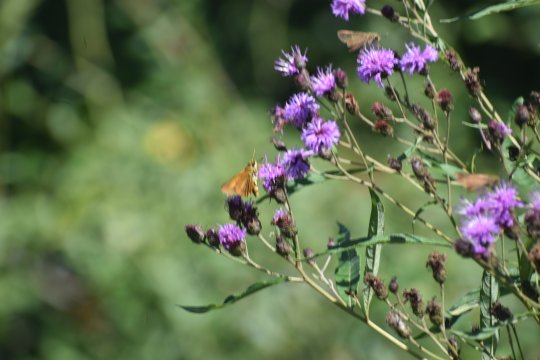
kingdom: Animalia
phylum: Arthropoda
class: Insecta
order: Lepidoptera
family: Hesperiidae
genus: Euphyes
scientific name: Euphyes dion
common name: Dion Skipper
